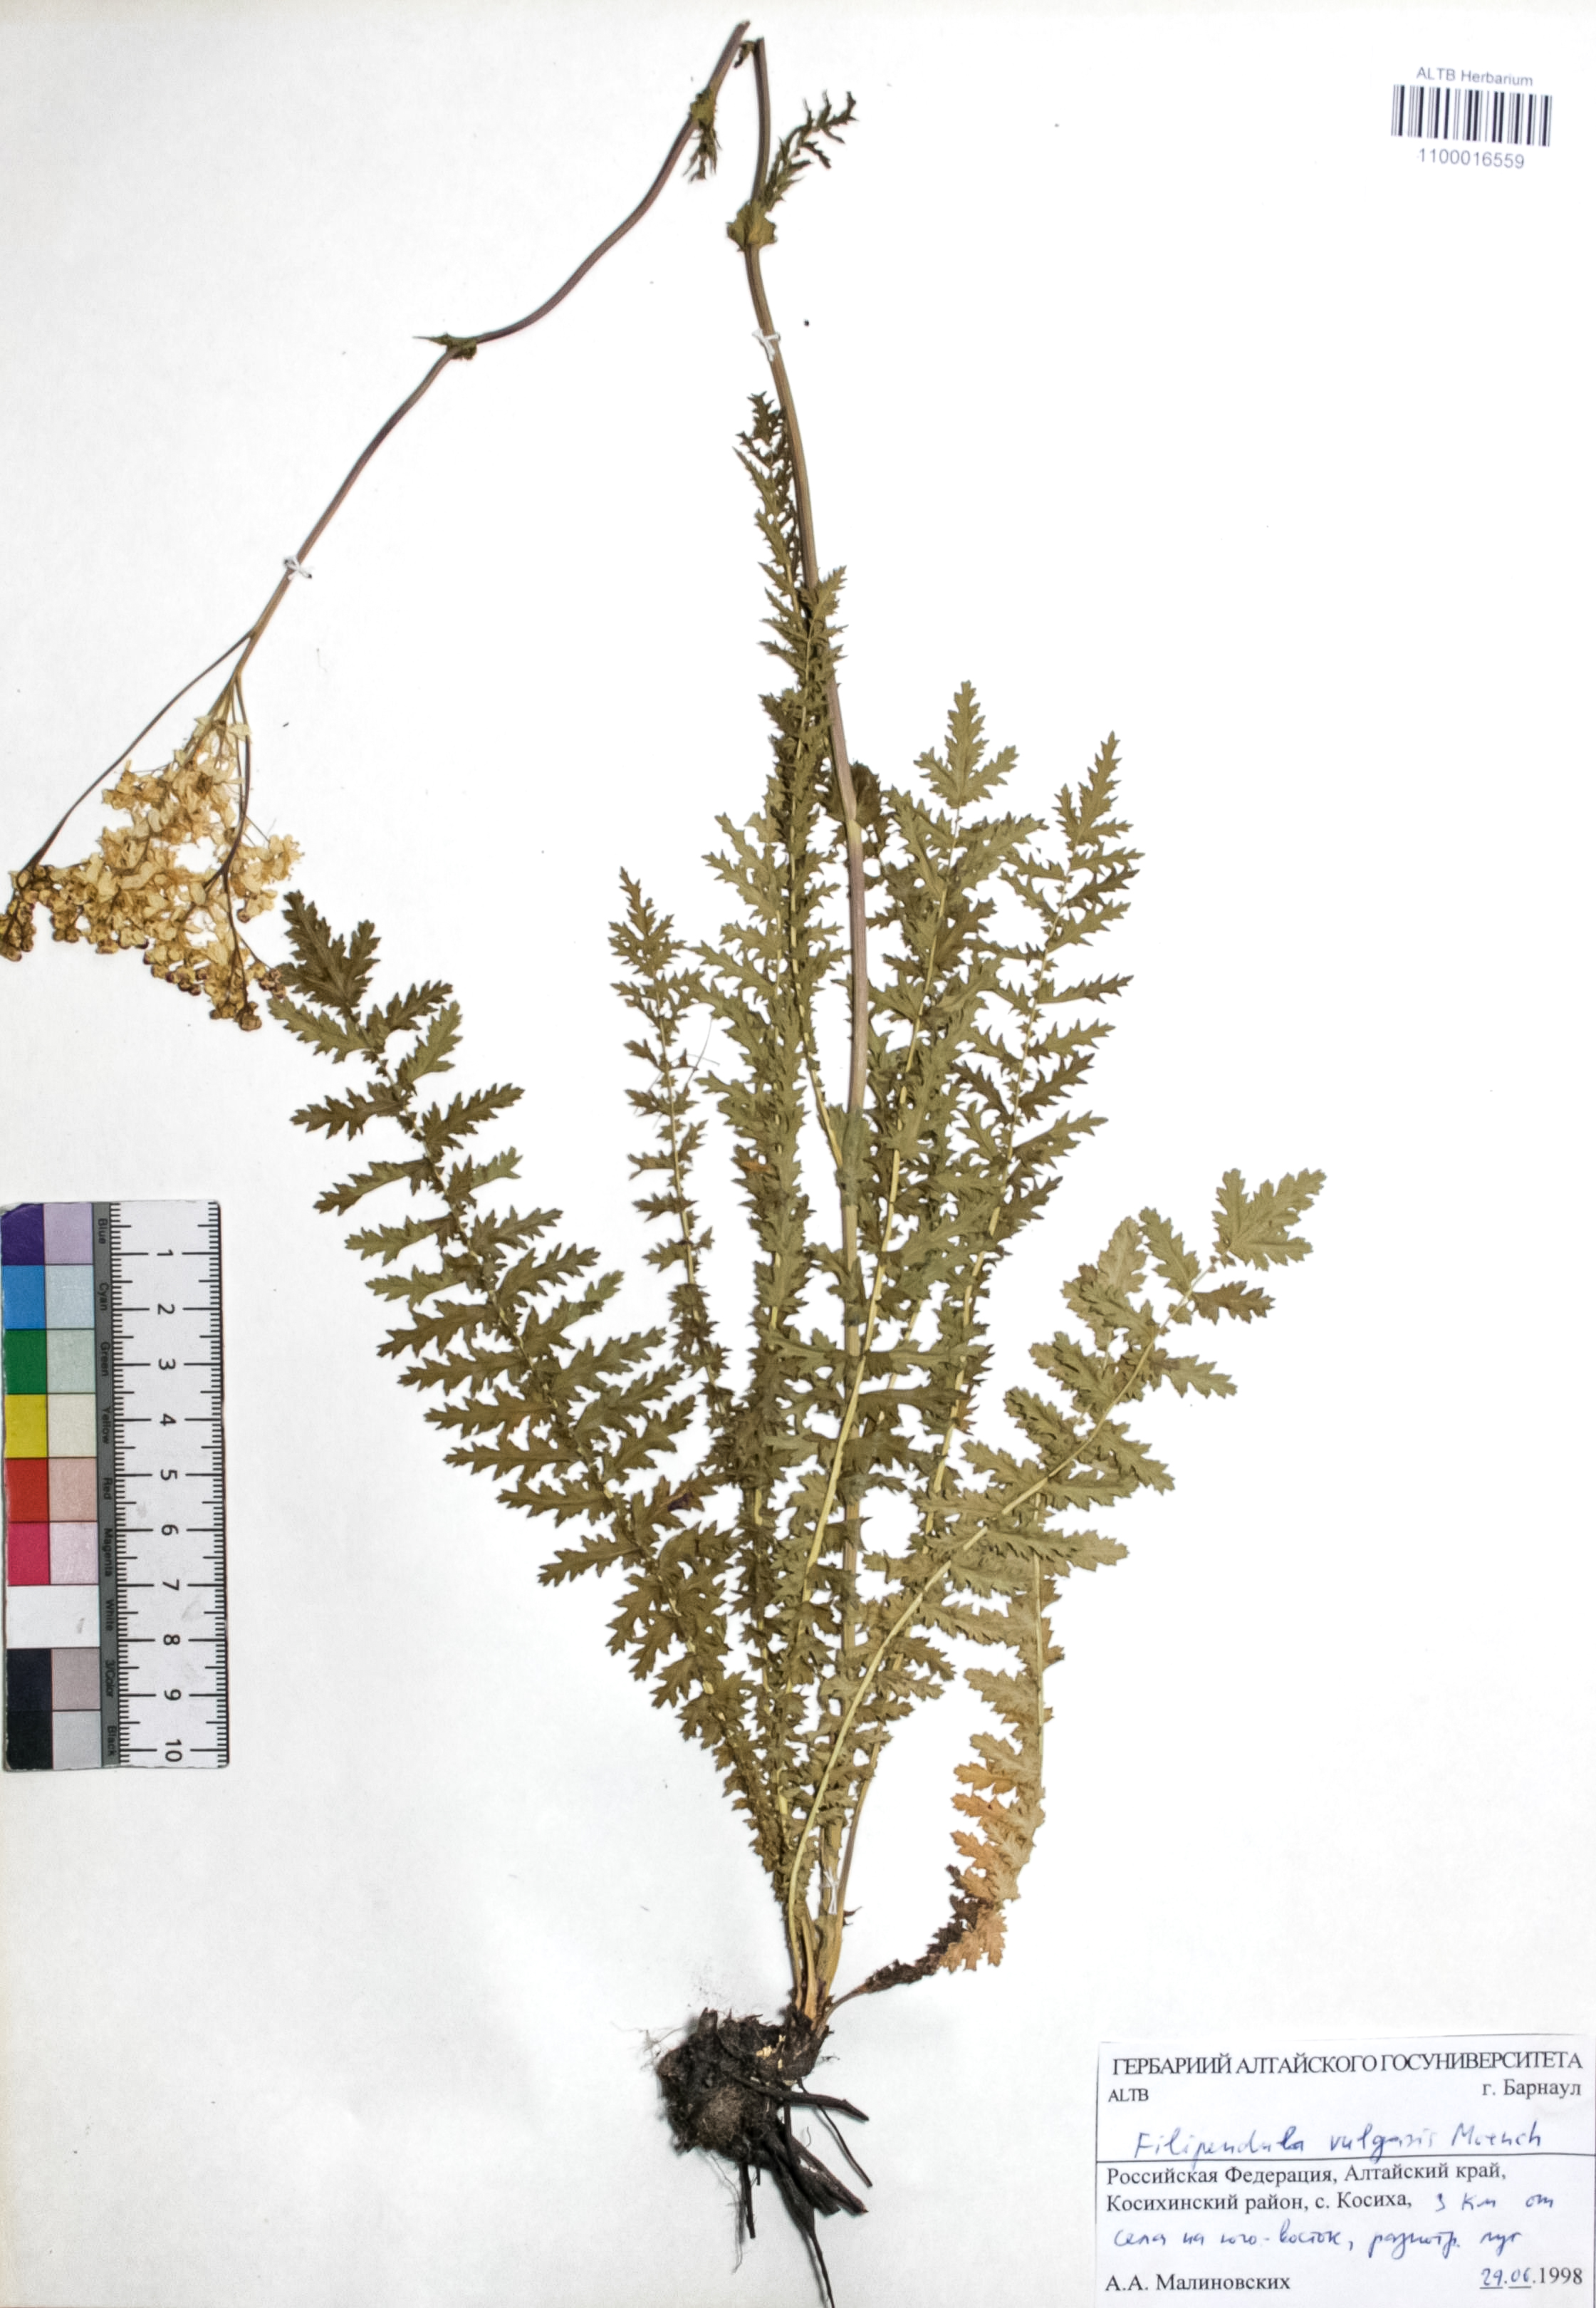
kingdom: Plantae
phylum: Tracheophyta
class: Magnoliopsida
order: Rosales
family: Rosaceae
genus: Filipendula
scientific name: Filipendula vulgaris
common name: Dropwort
